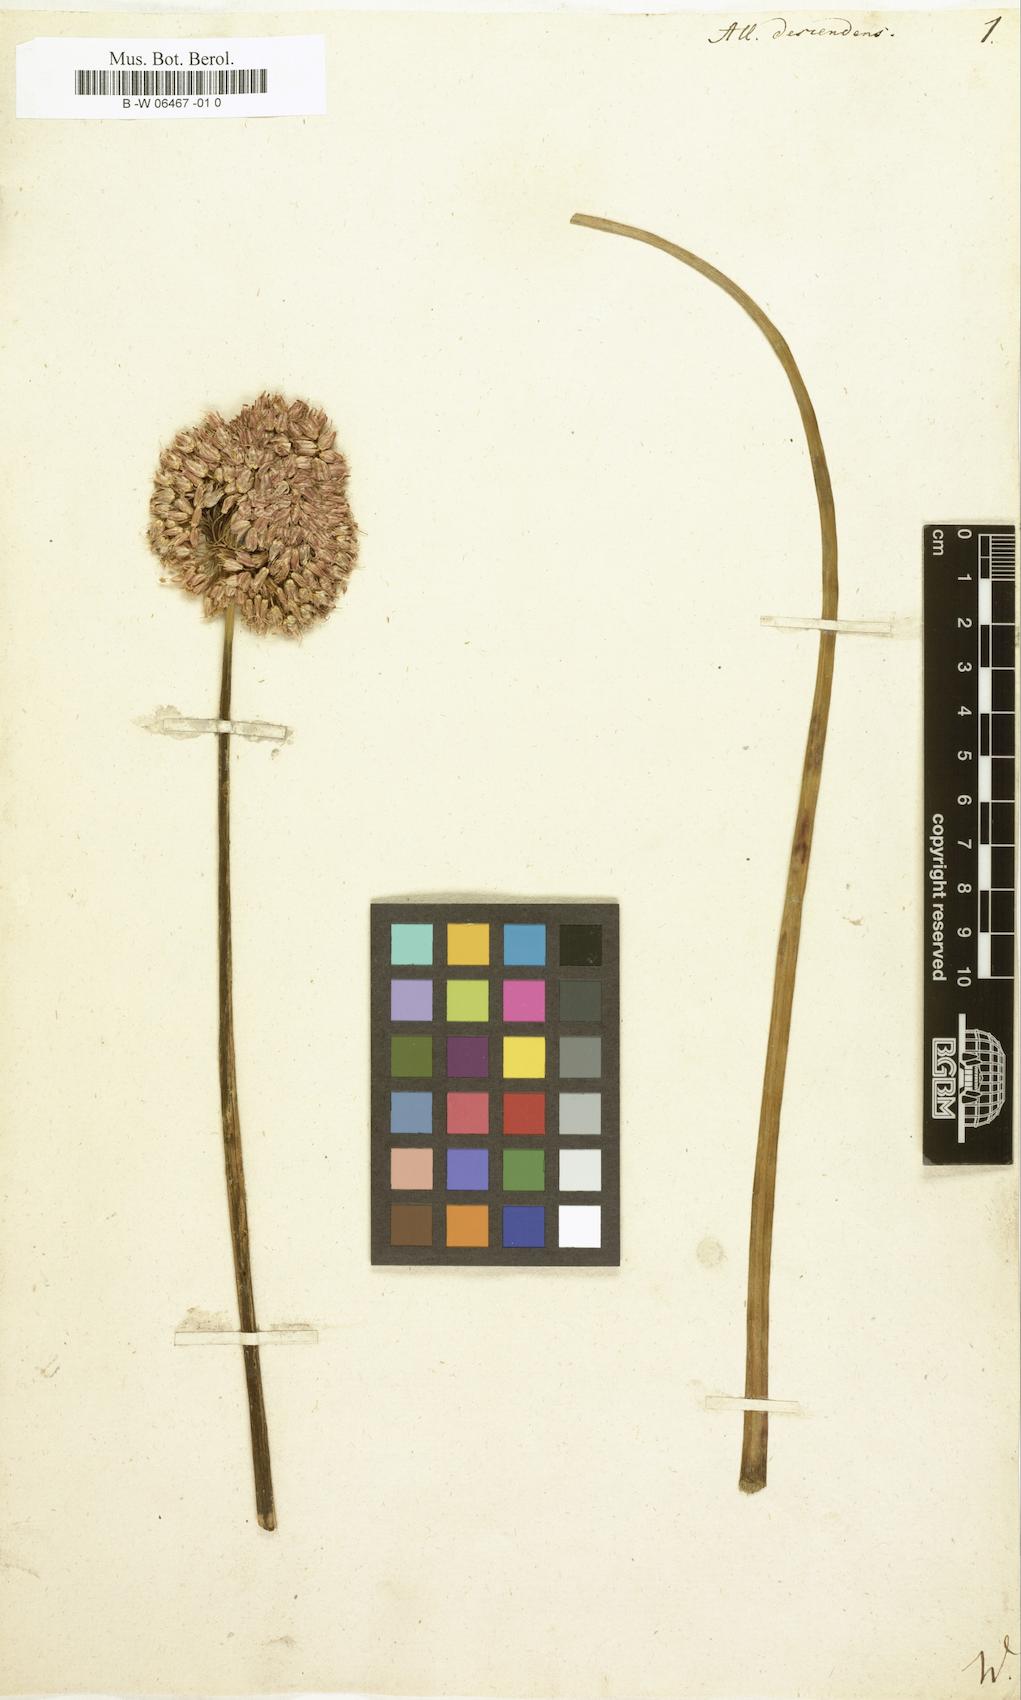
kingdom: Plantae
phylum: Tracheophyta
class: Liliopsida
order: Asparagales
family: Amaryllidaceae
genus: Allium
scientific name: Allium descendens
